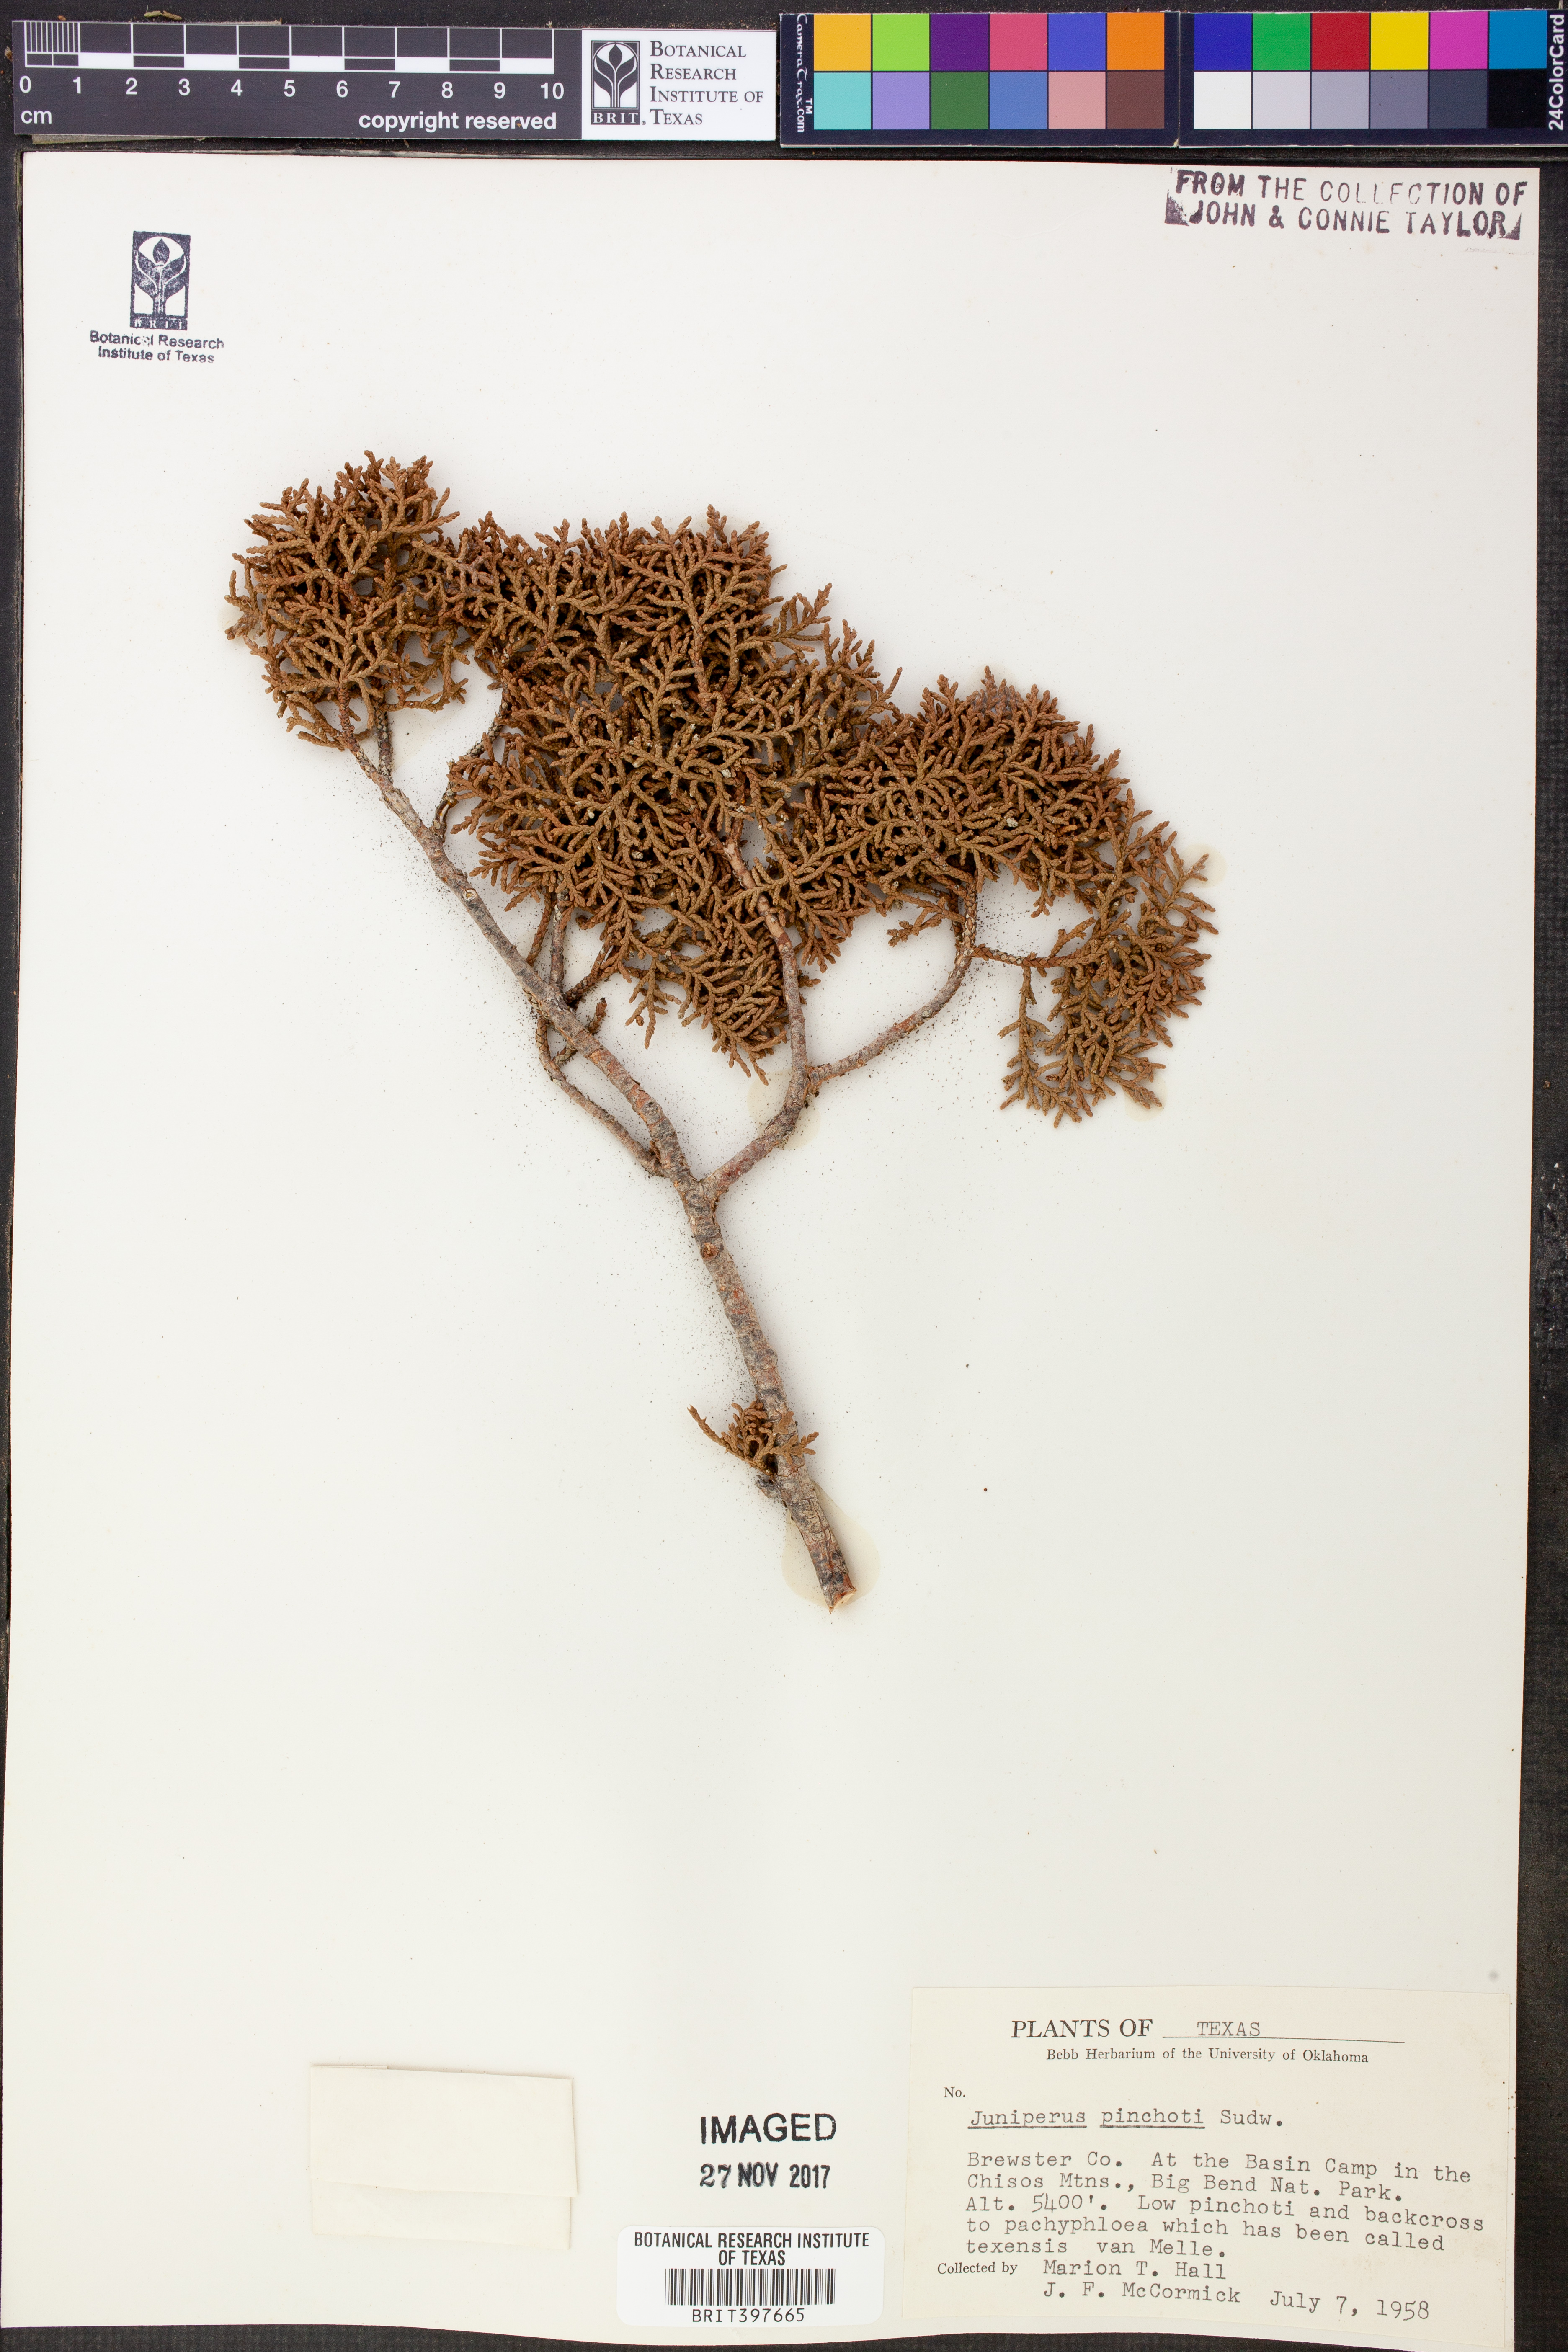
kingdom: Plantae
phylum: Tracheophyta
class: Pinopsida
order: Pinales
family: Cupressaceae
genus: Juniperus
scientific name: Juniperus pinchotii
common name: Pinchot juniper
